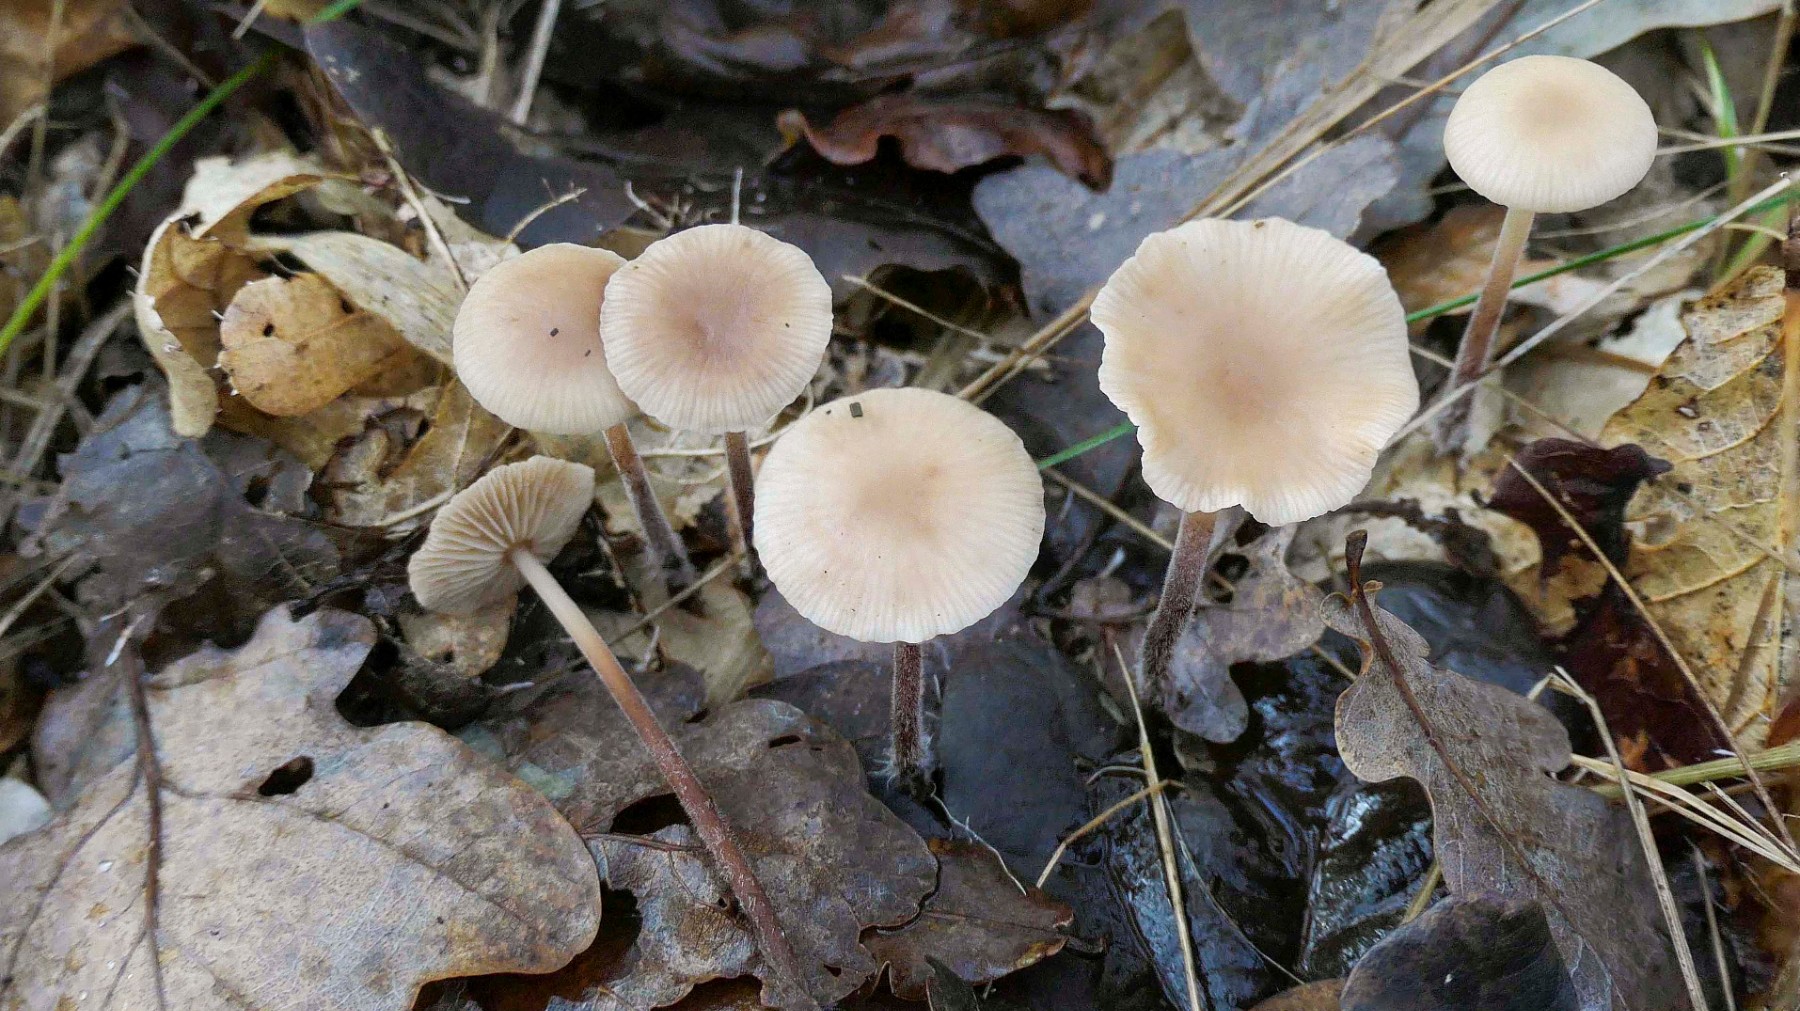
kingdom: Fungi
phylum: Basidiomycota
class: Agaricomycetes
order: Agaricales
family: Omphalotaceae
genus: Mycetinis
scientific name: Mycetinis querceus
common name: ege-løghat
